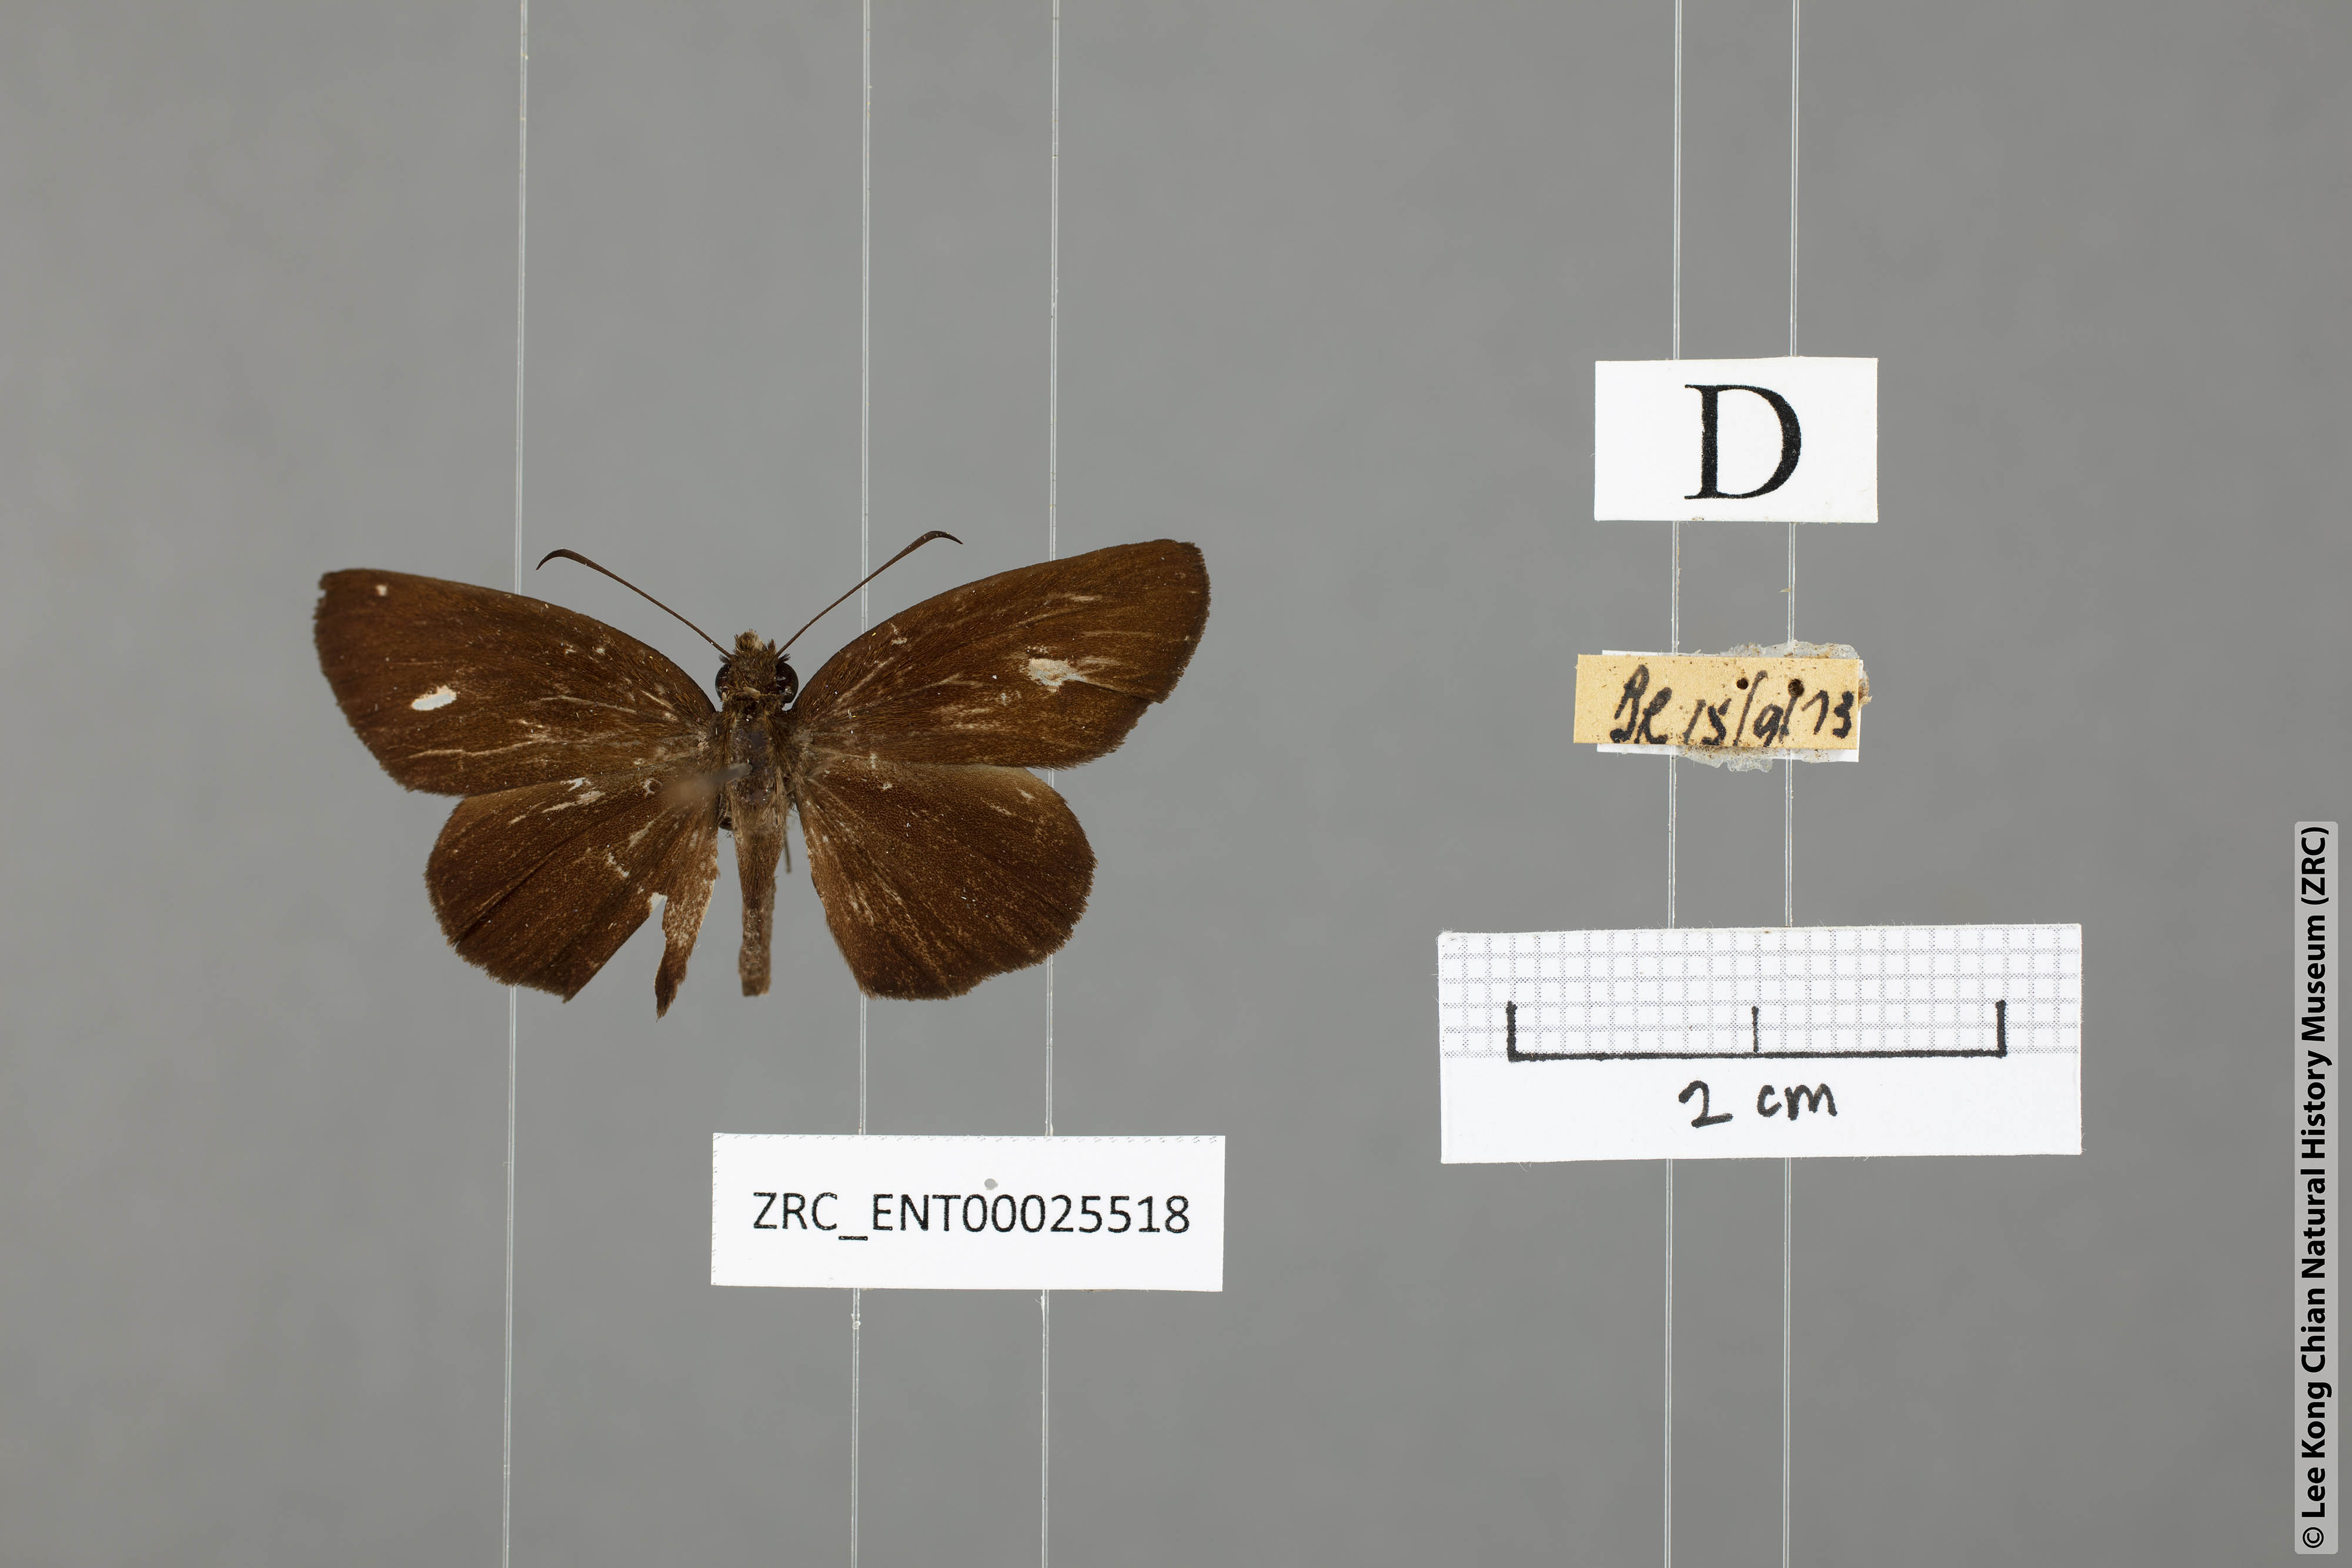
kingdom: Animalia
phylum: Arthropoda
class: Insecta
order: Lepidoptera
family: Hesperiidae
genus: Psolos
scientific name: Psolos fuligo
